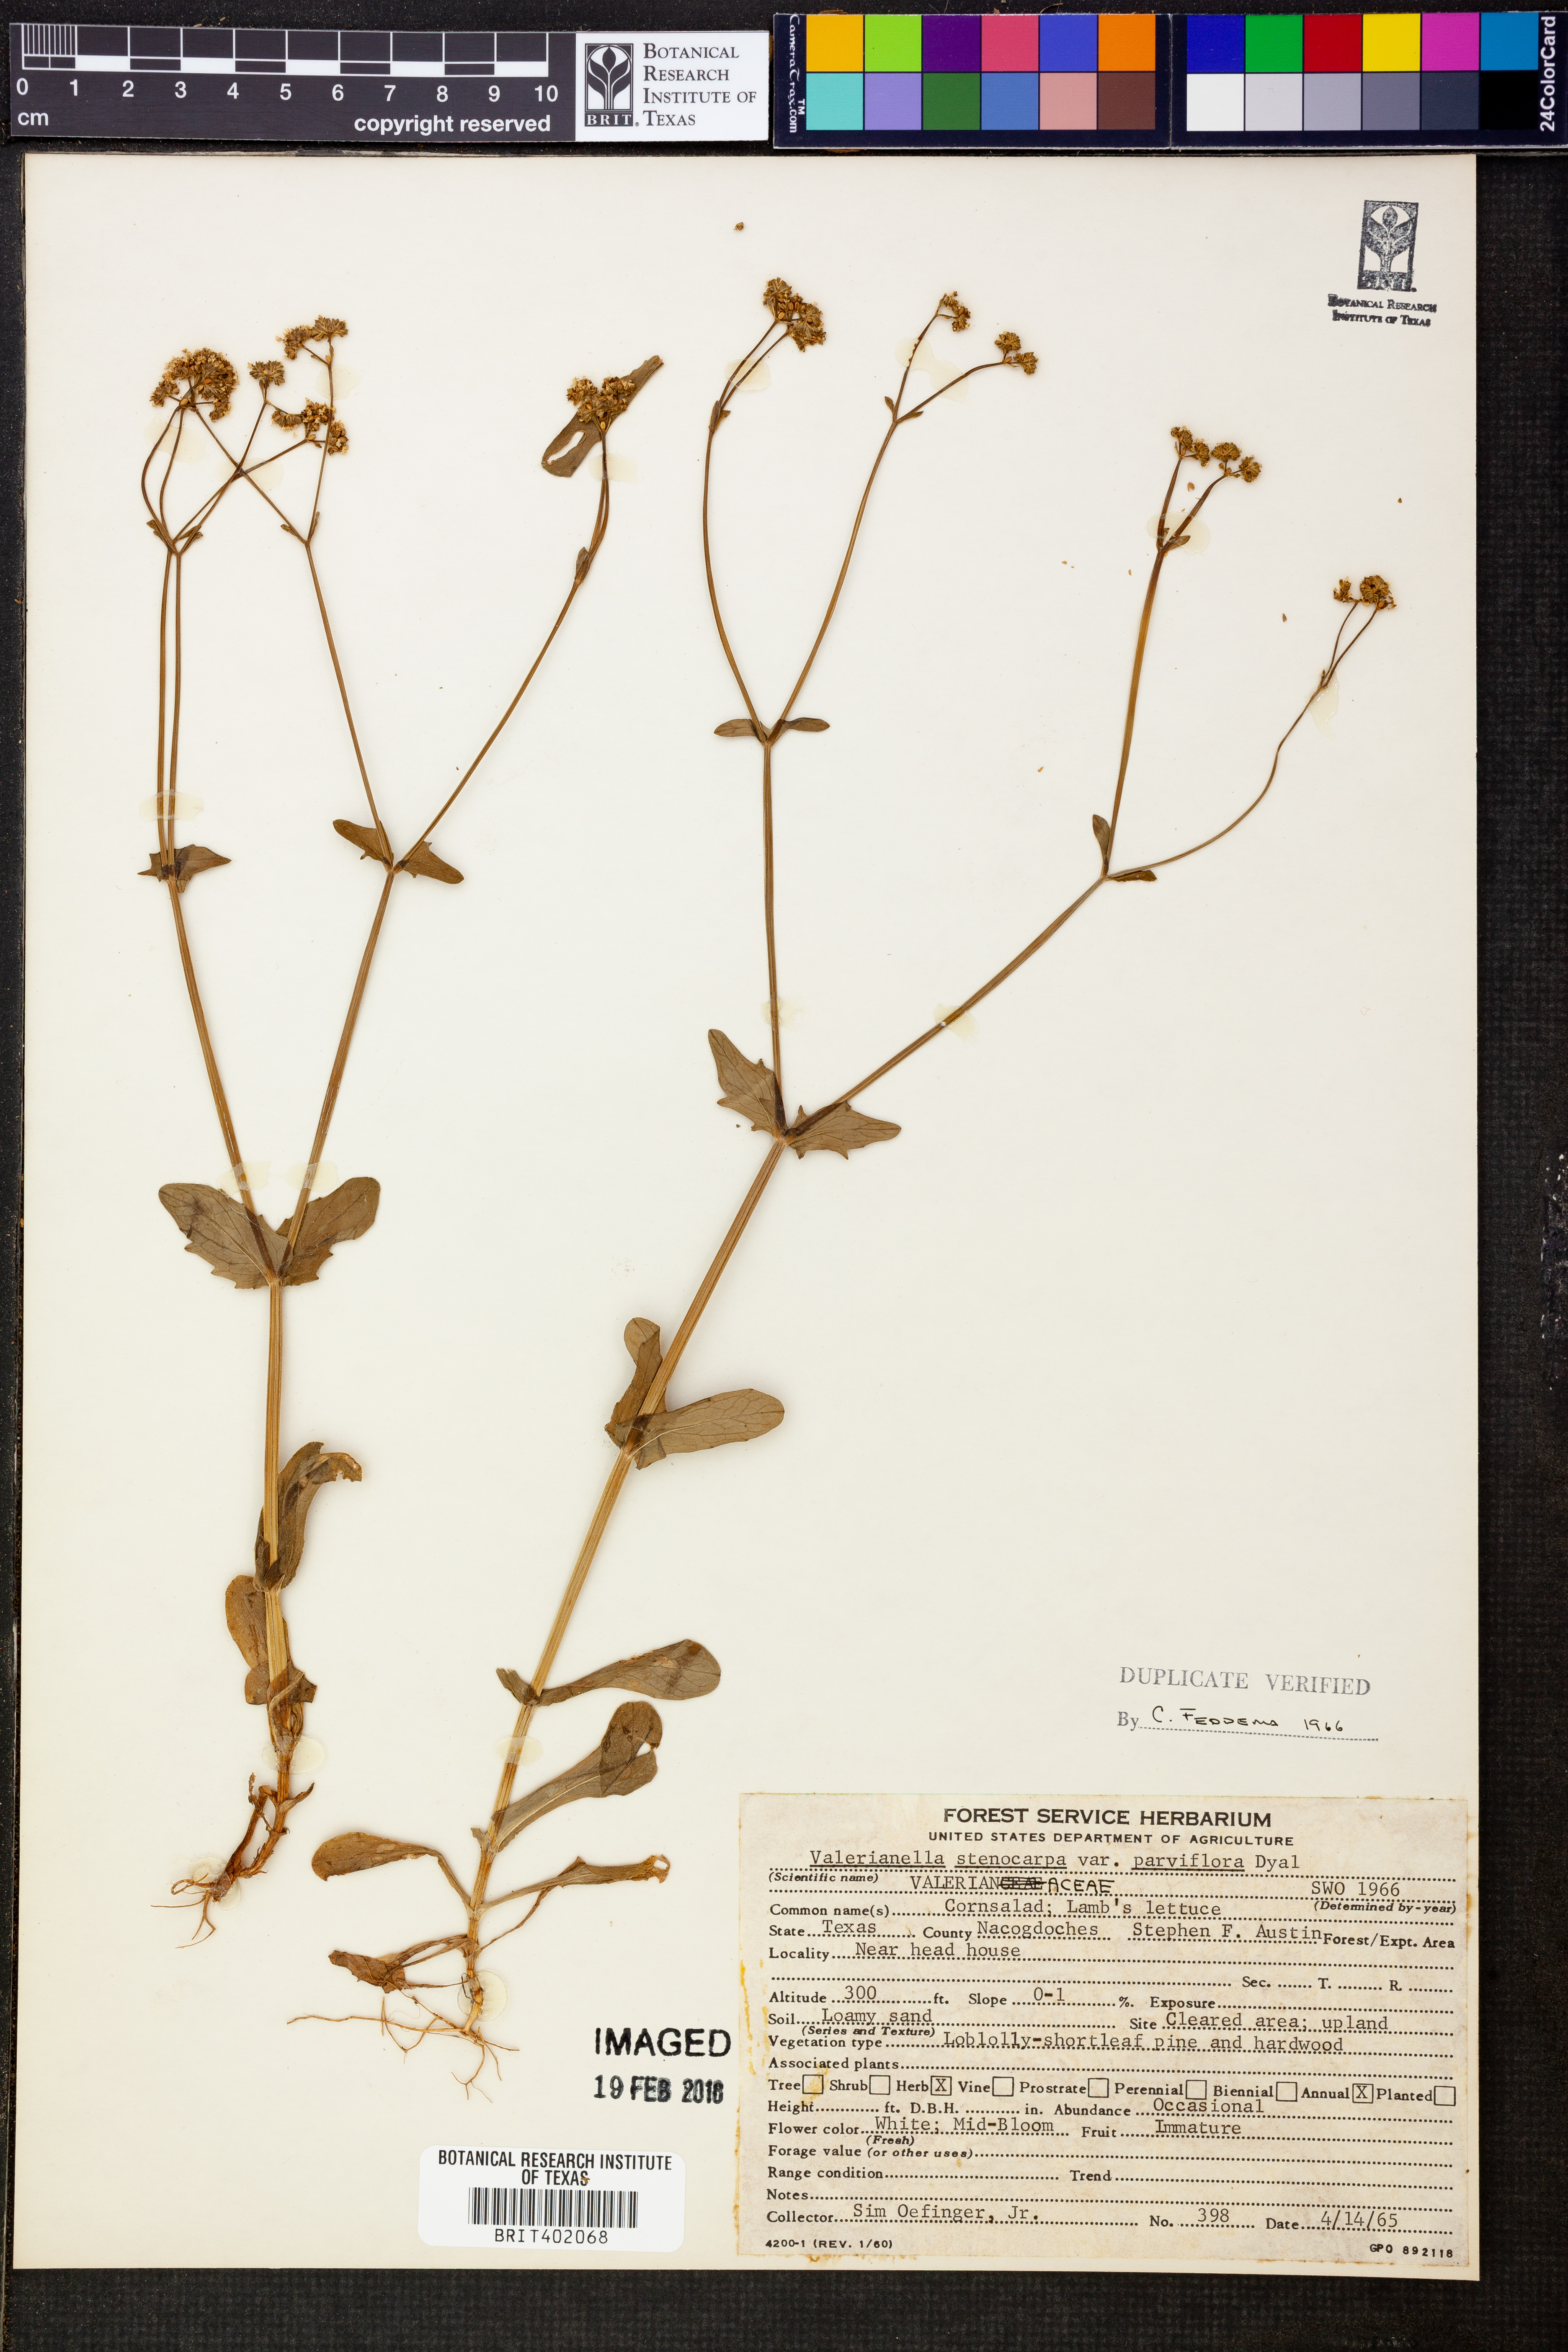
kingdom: Plantae
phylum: Tracheophyta
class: Magnoliopsida
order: Dipsacales
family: Caprifoliaceae
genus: Valerianella
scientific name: Valerianella radiata
